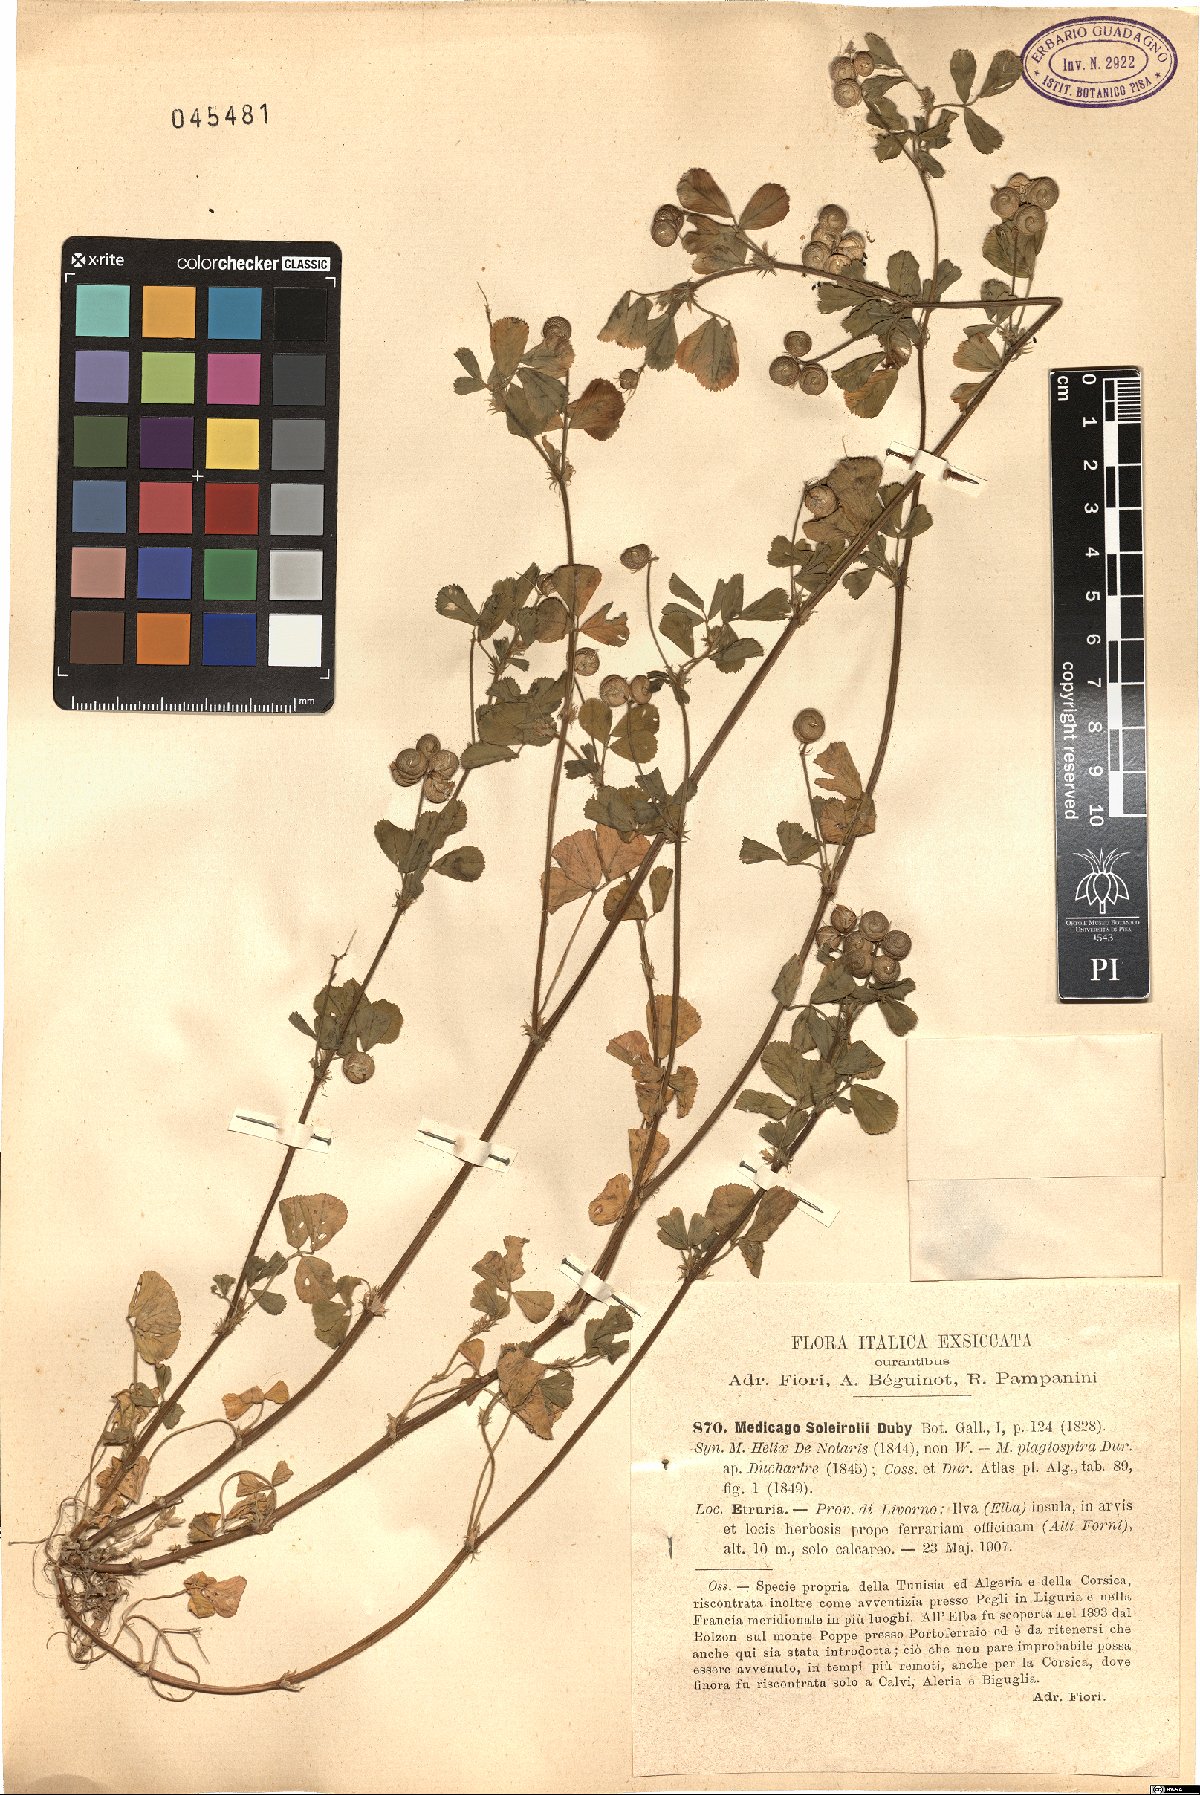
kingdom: Plantae
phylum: Tracheophyta
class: Magnoliopsida
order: Fabales
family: Fabaceae
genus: Medicago
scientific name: Medicago soleirolii
